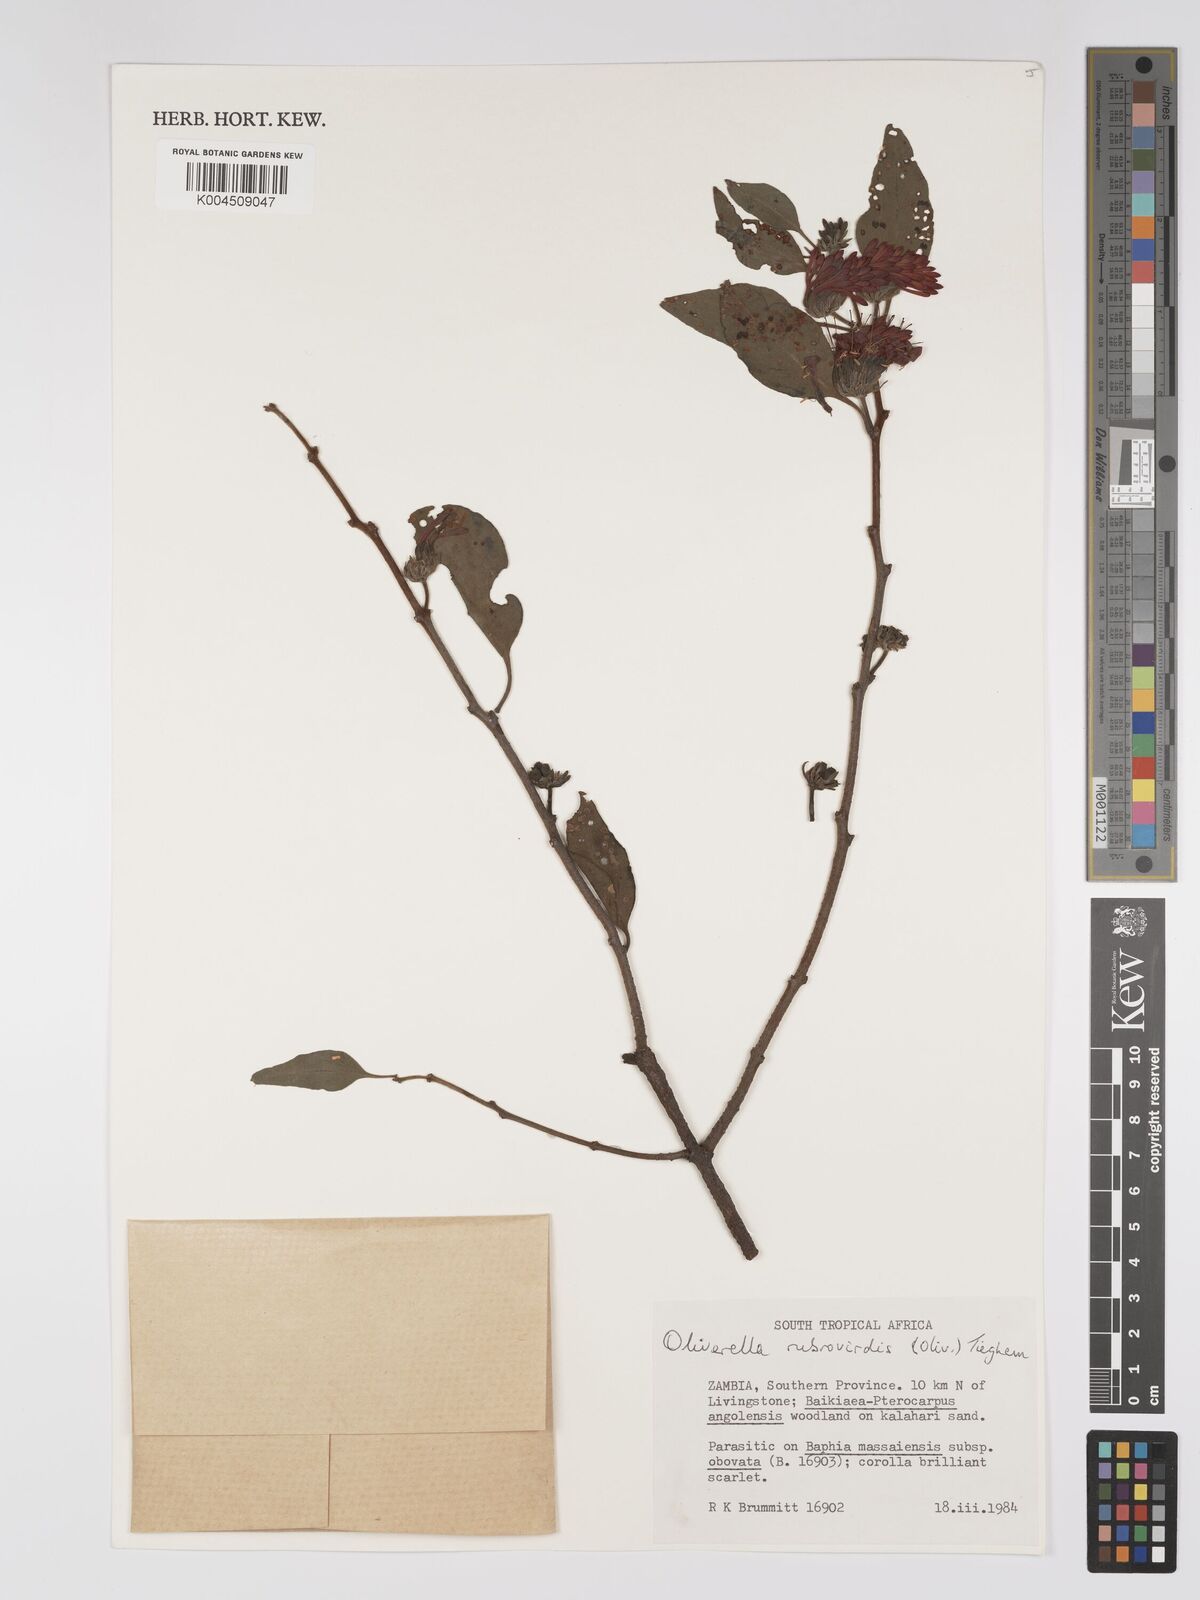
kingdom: Plantae
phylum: Tracheophyta
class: Magnoliopsida
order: Santalales
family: Loranthaceae
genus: Oliverella
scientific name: Oliverella rubroviridis
